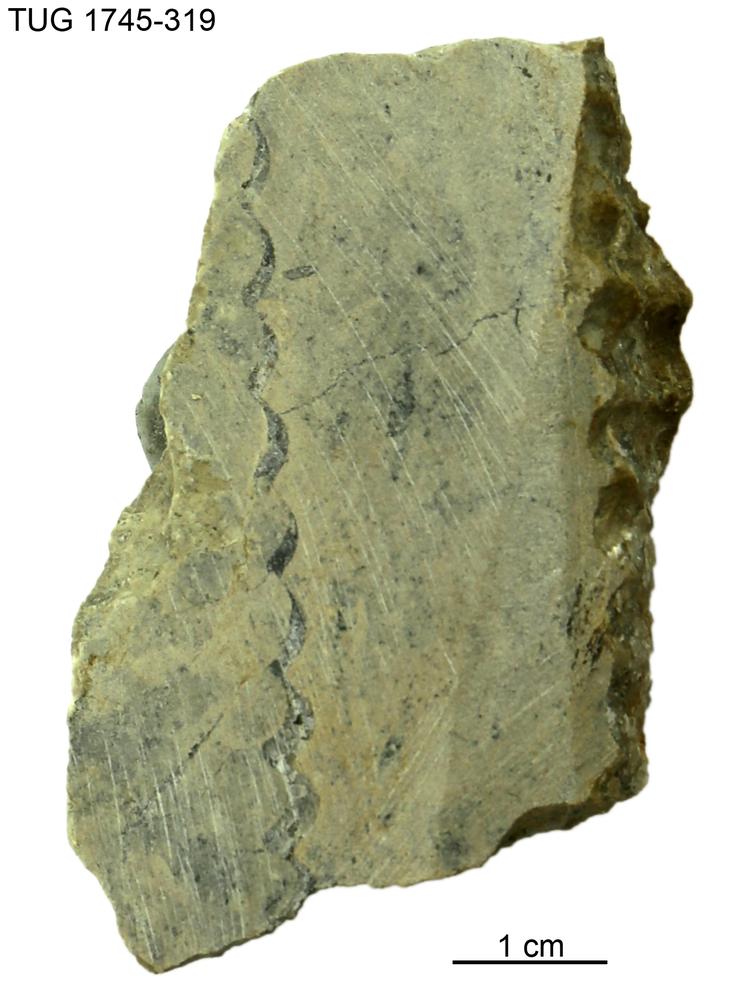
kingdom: Animalia
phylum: Mollusca
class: Cephalopoda
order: Orthocerida
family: Dawsonoceratidae
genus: Palaeodawsonocerina
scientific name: Palaeodawsonocerina Spyroceras senckenbergi
